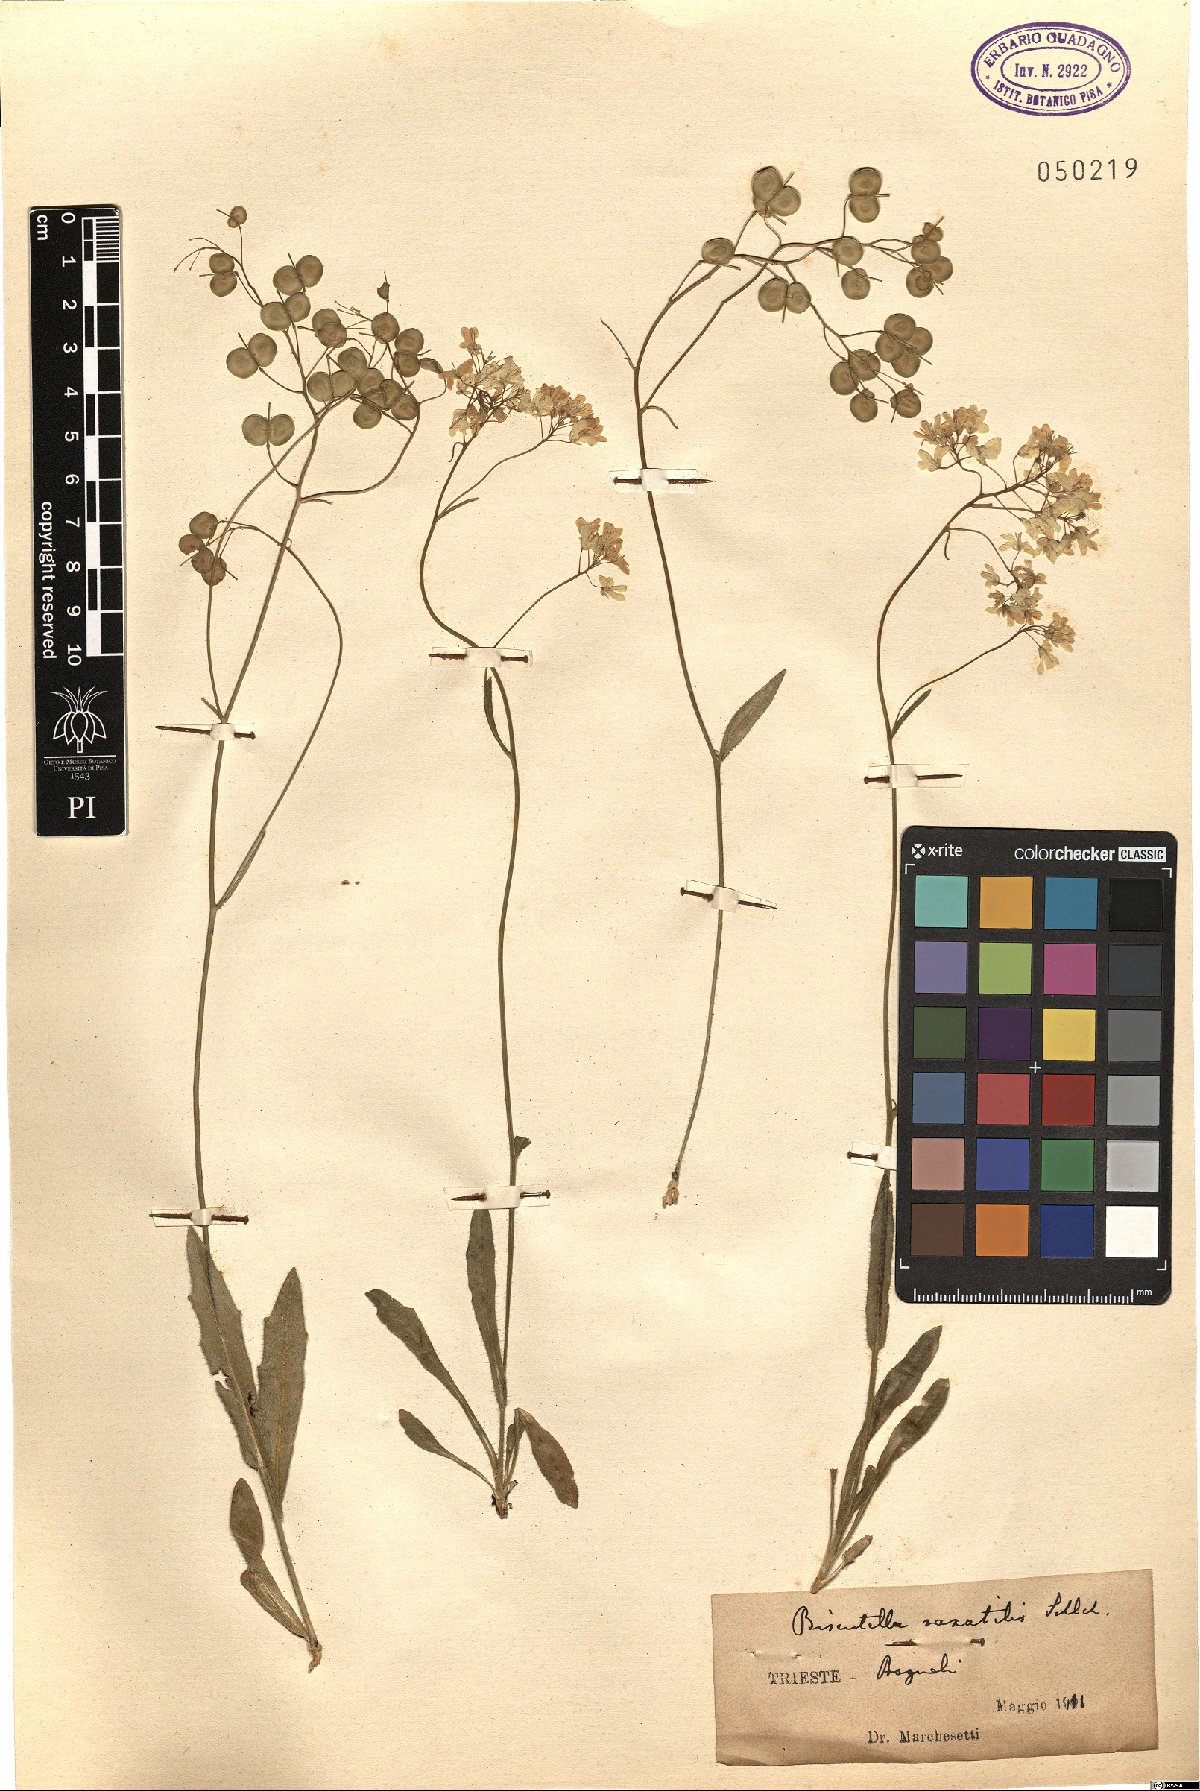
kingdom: Plantae
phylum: Tracheophyta
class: Magnoliopsida
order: Brassicales
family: Brassicaceae
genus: Biscutella
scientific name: Biscutella
